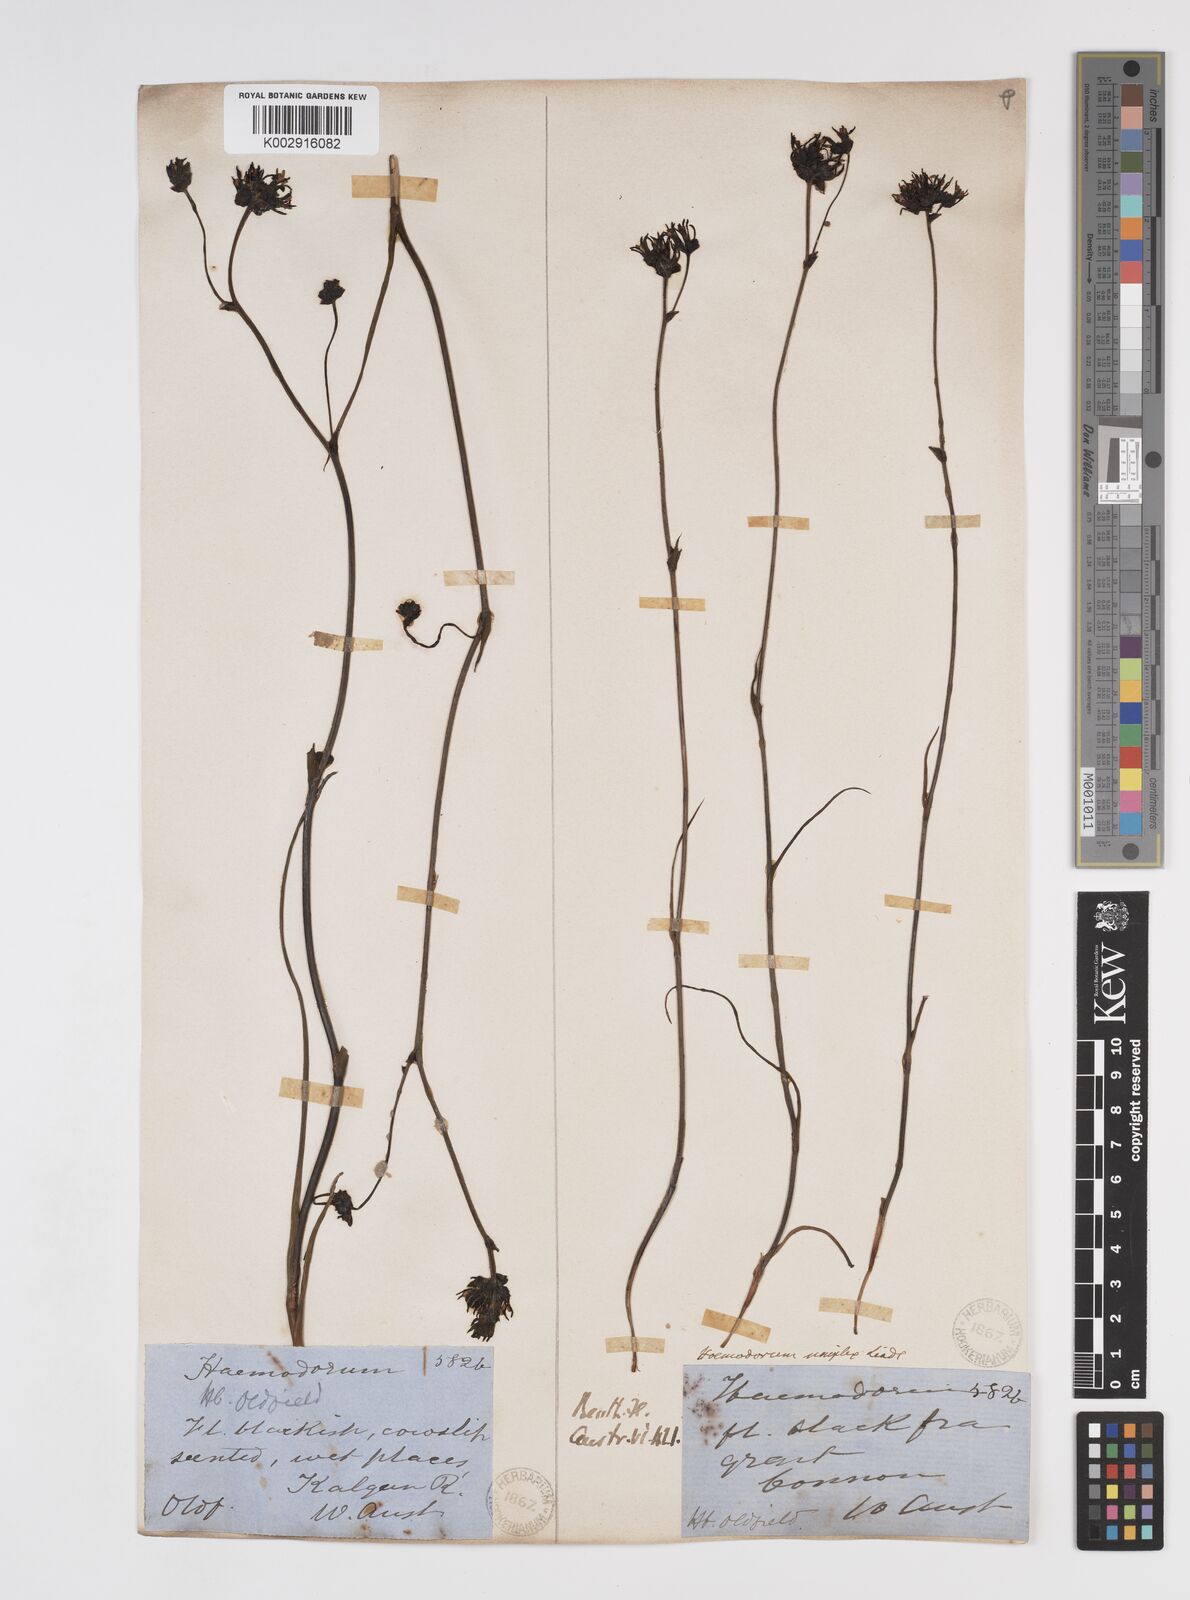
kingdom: Plantae
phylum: Tracheophyta
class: Liliopsida
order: Commelinales
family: Haemodoraceae
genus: Haemodorum
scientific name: Haemodorum
